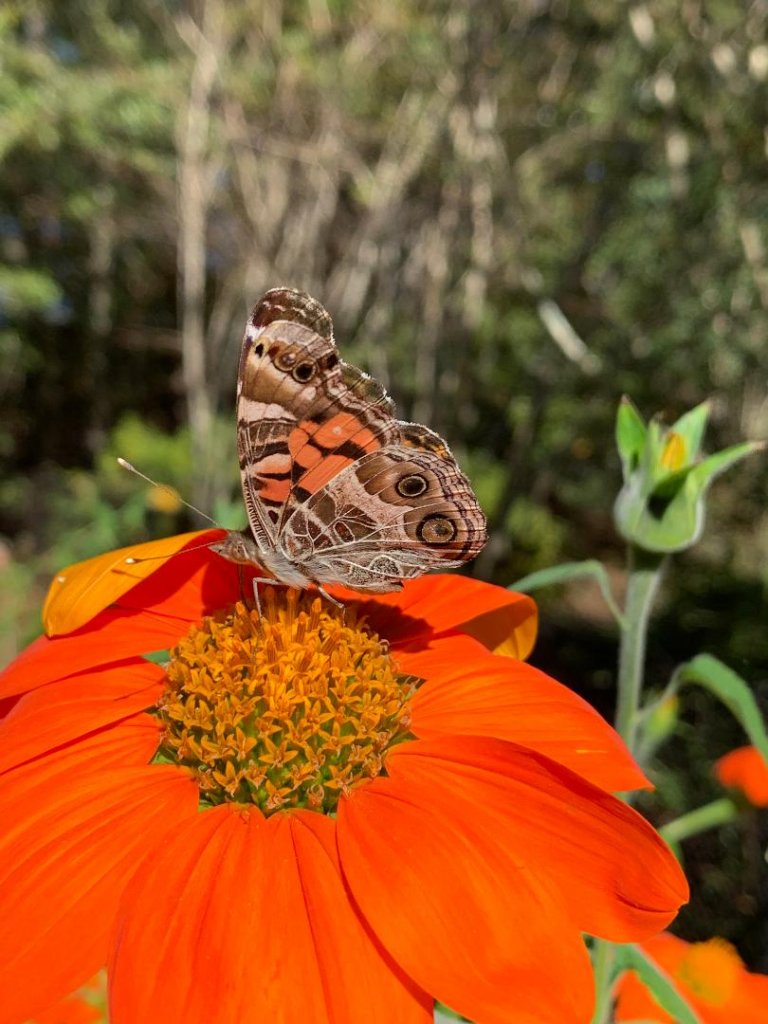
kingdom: Animalia
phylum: Arthropoda
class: Insecta
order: Lepidoptera
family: Nymphalidae
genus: Vanessa
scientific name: Vanessa virginiensis
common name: American Lady
